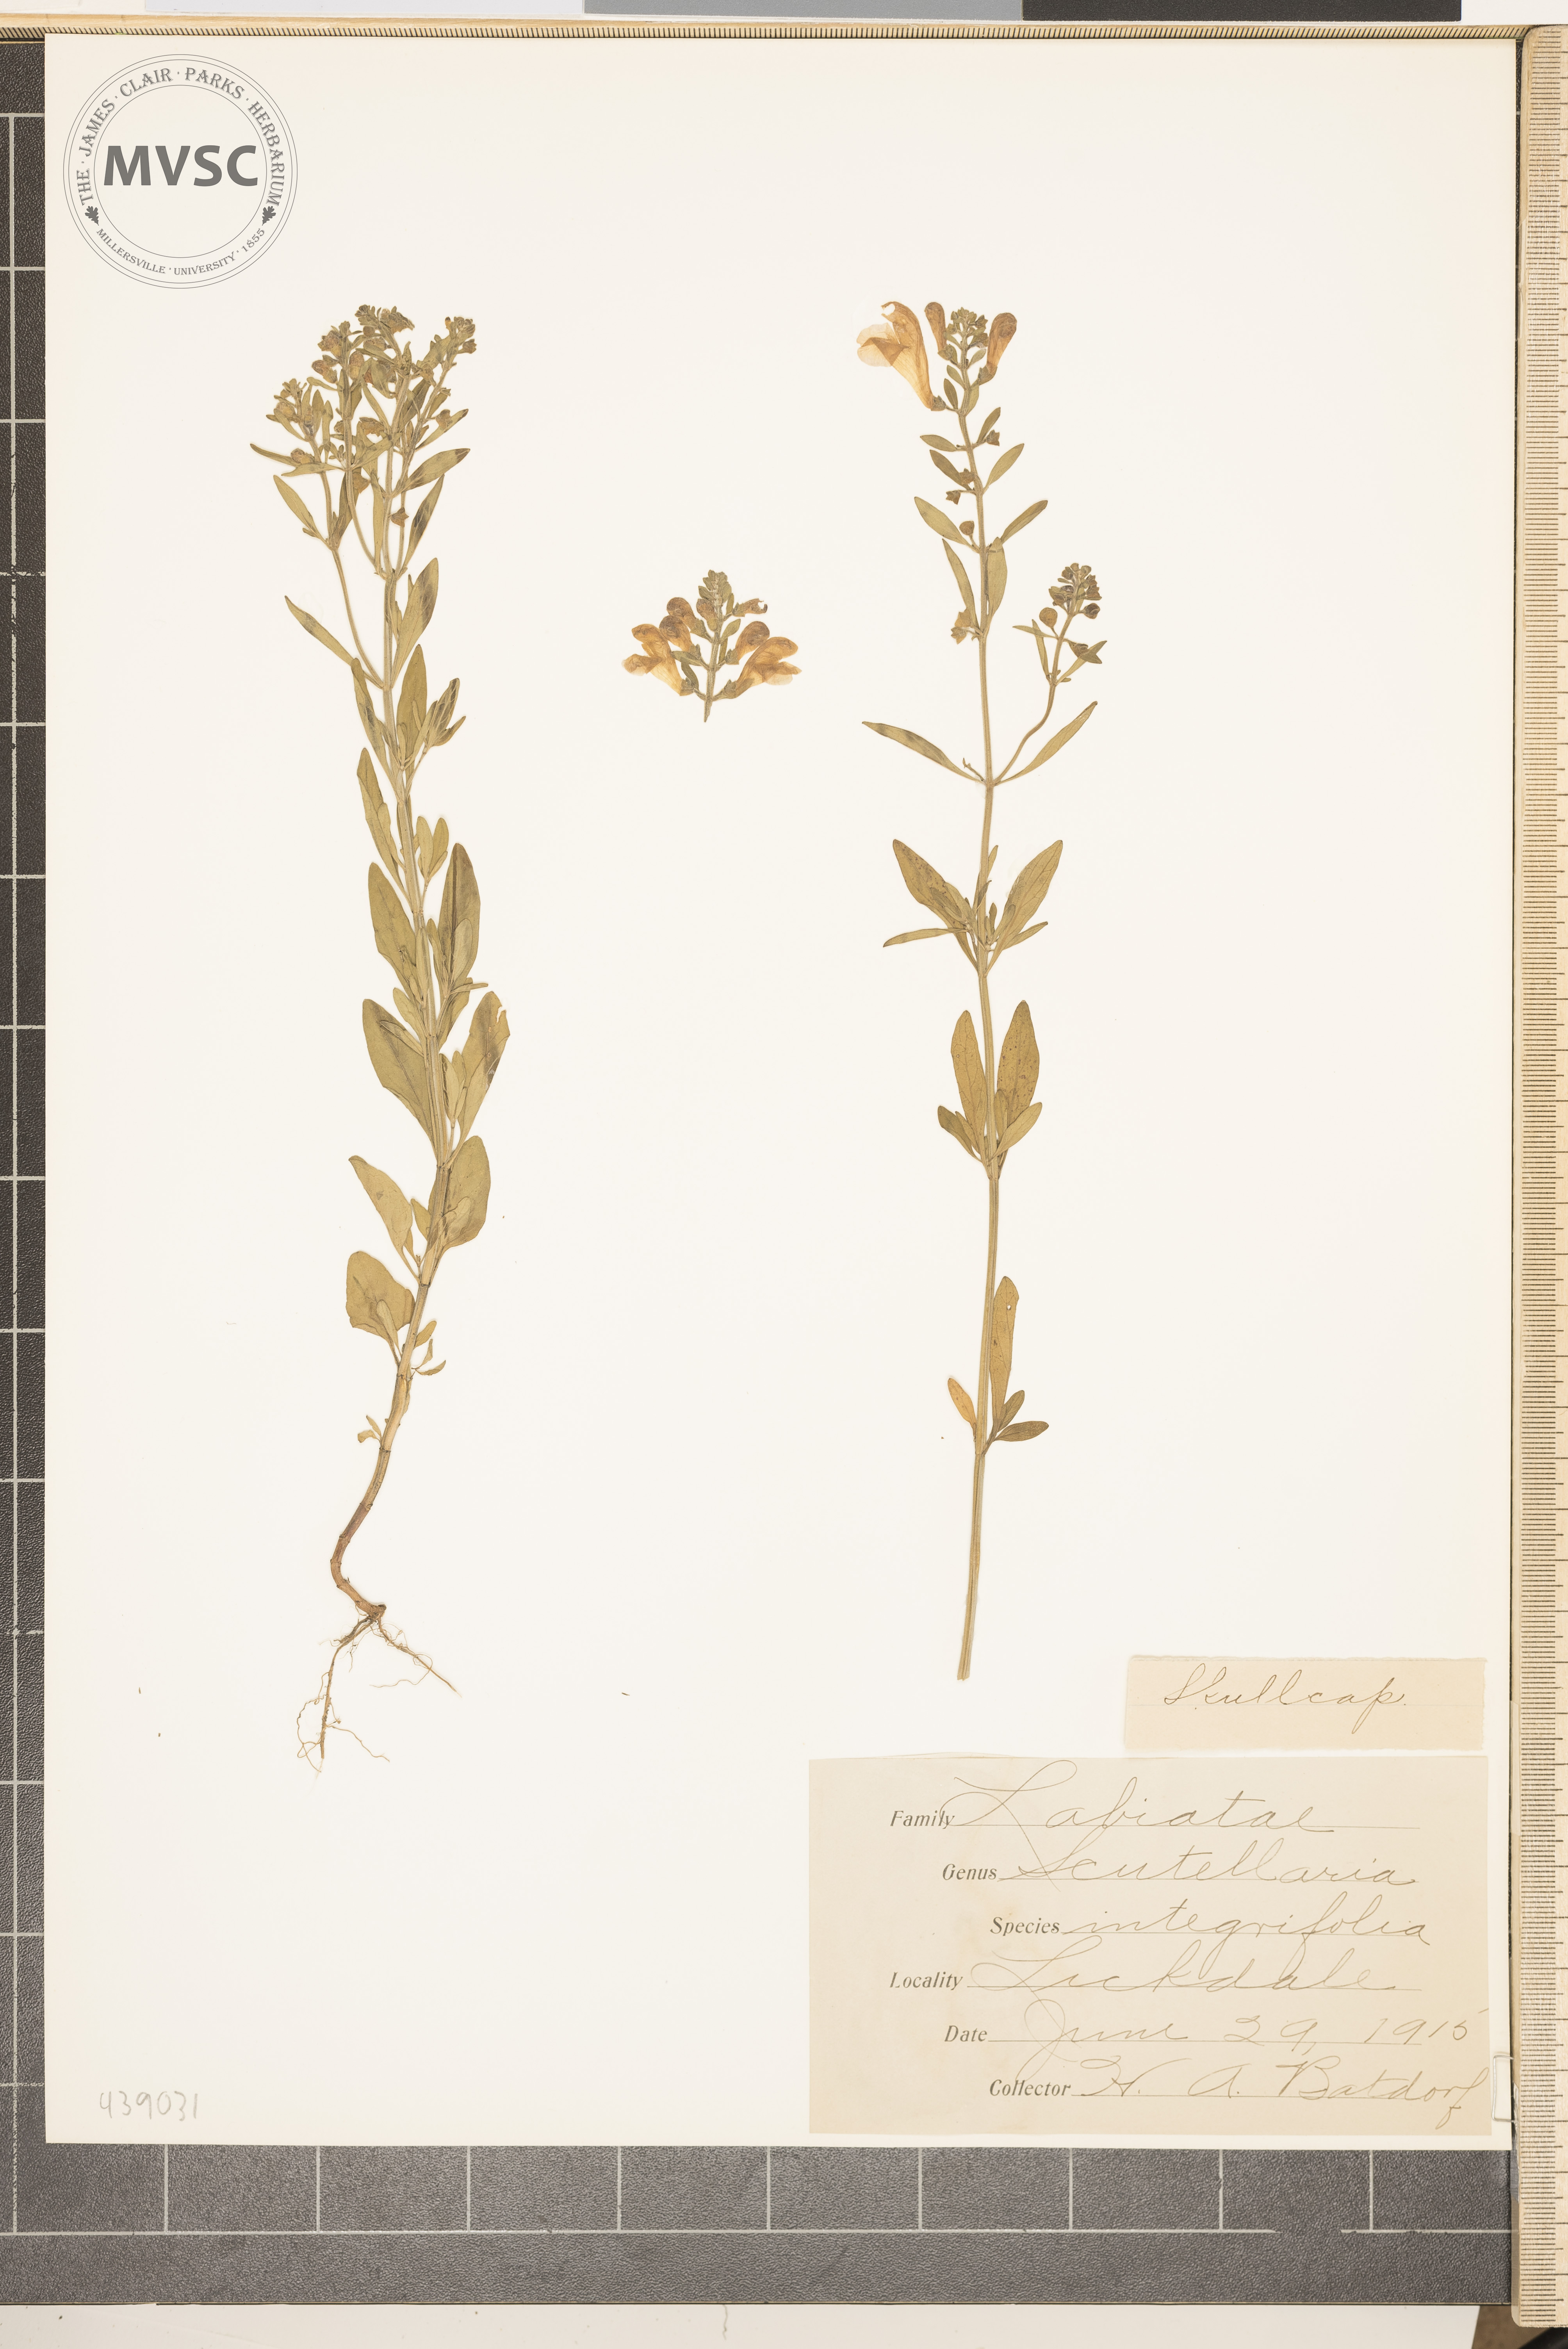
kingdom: Plantae
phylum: Tracheophyta
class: Magnoliopsida
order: Lamiales
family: Lamiaceae
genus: Scutellaria
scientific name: Scutellaria integrifolia
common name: Scullcap
